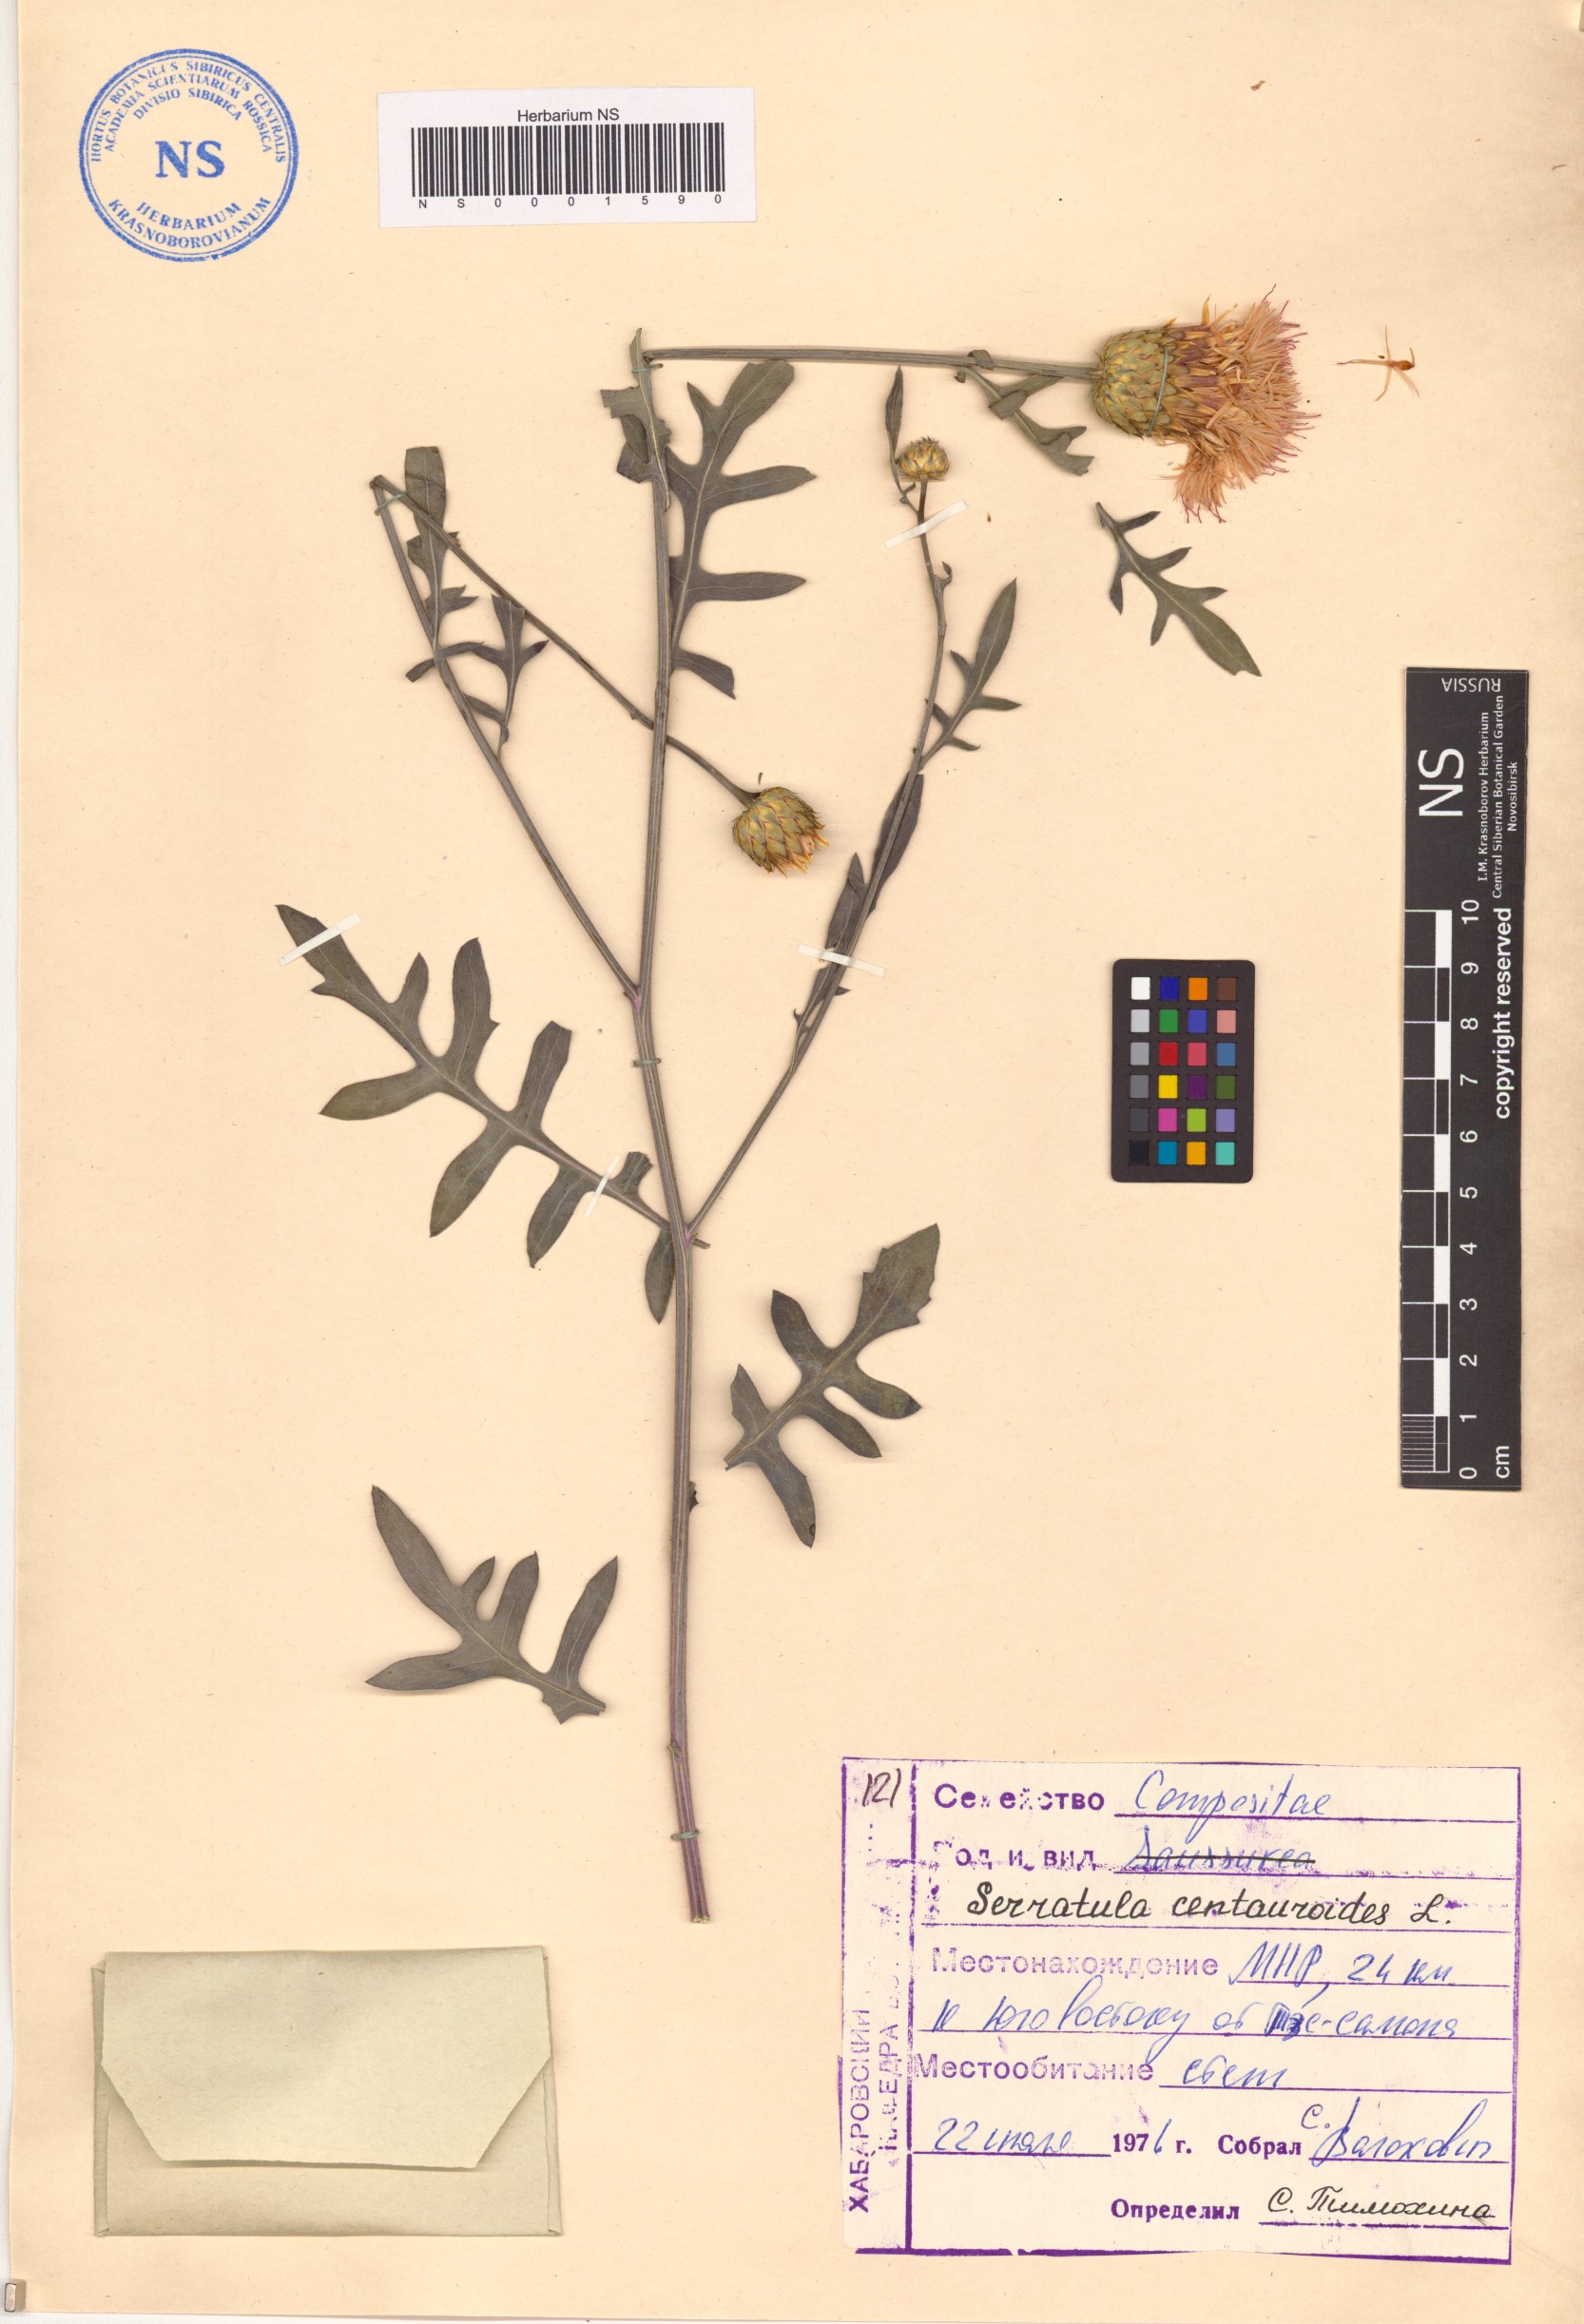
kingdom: Plantae
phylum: Tracheophyta
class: Magnoliopsida
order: Asterales
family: Asteraceae
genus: Klasea
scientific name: Klasea centauroides
